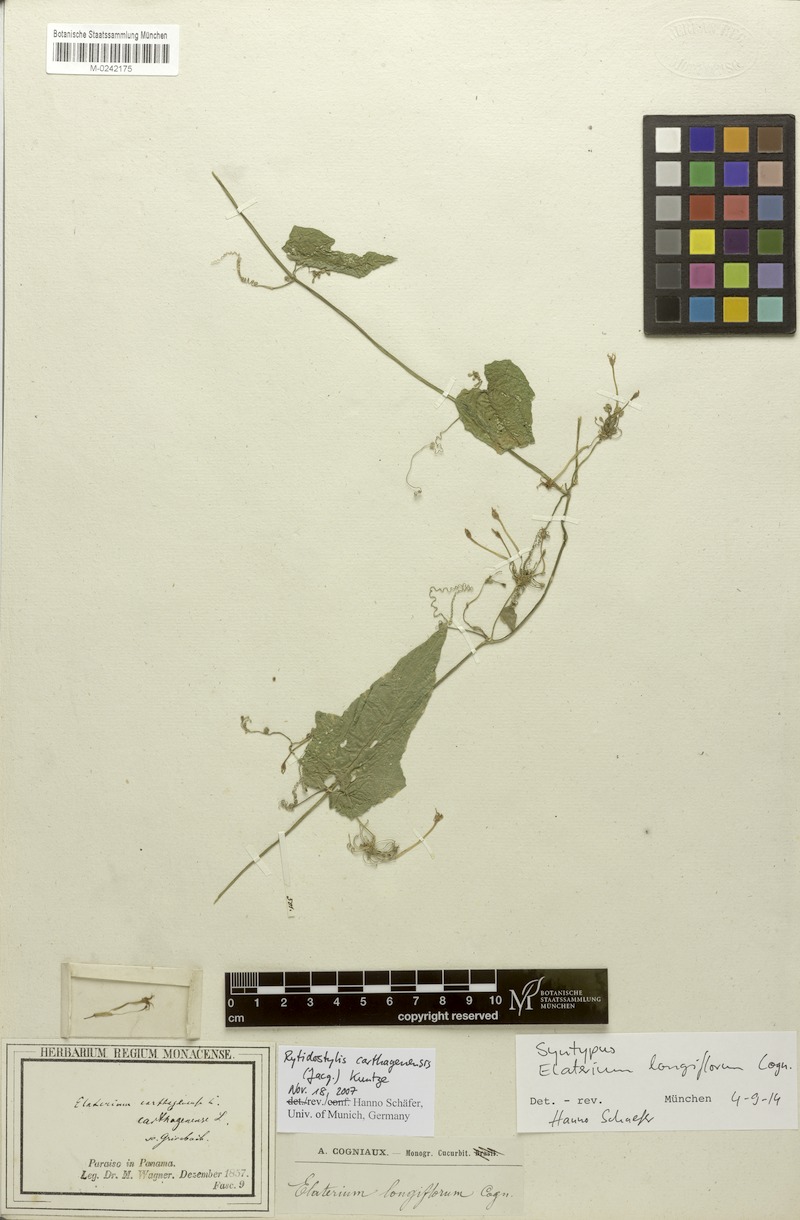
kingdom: Plantae
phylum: Tracheophyta
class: Magnoliopsida
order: Cucurbitales
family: Cucurbitaceae
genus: Cyclanthera
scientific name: Cyclanthera carthagenensis
